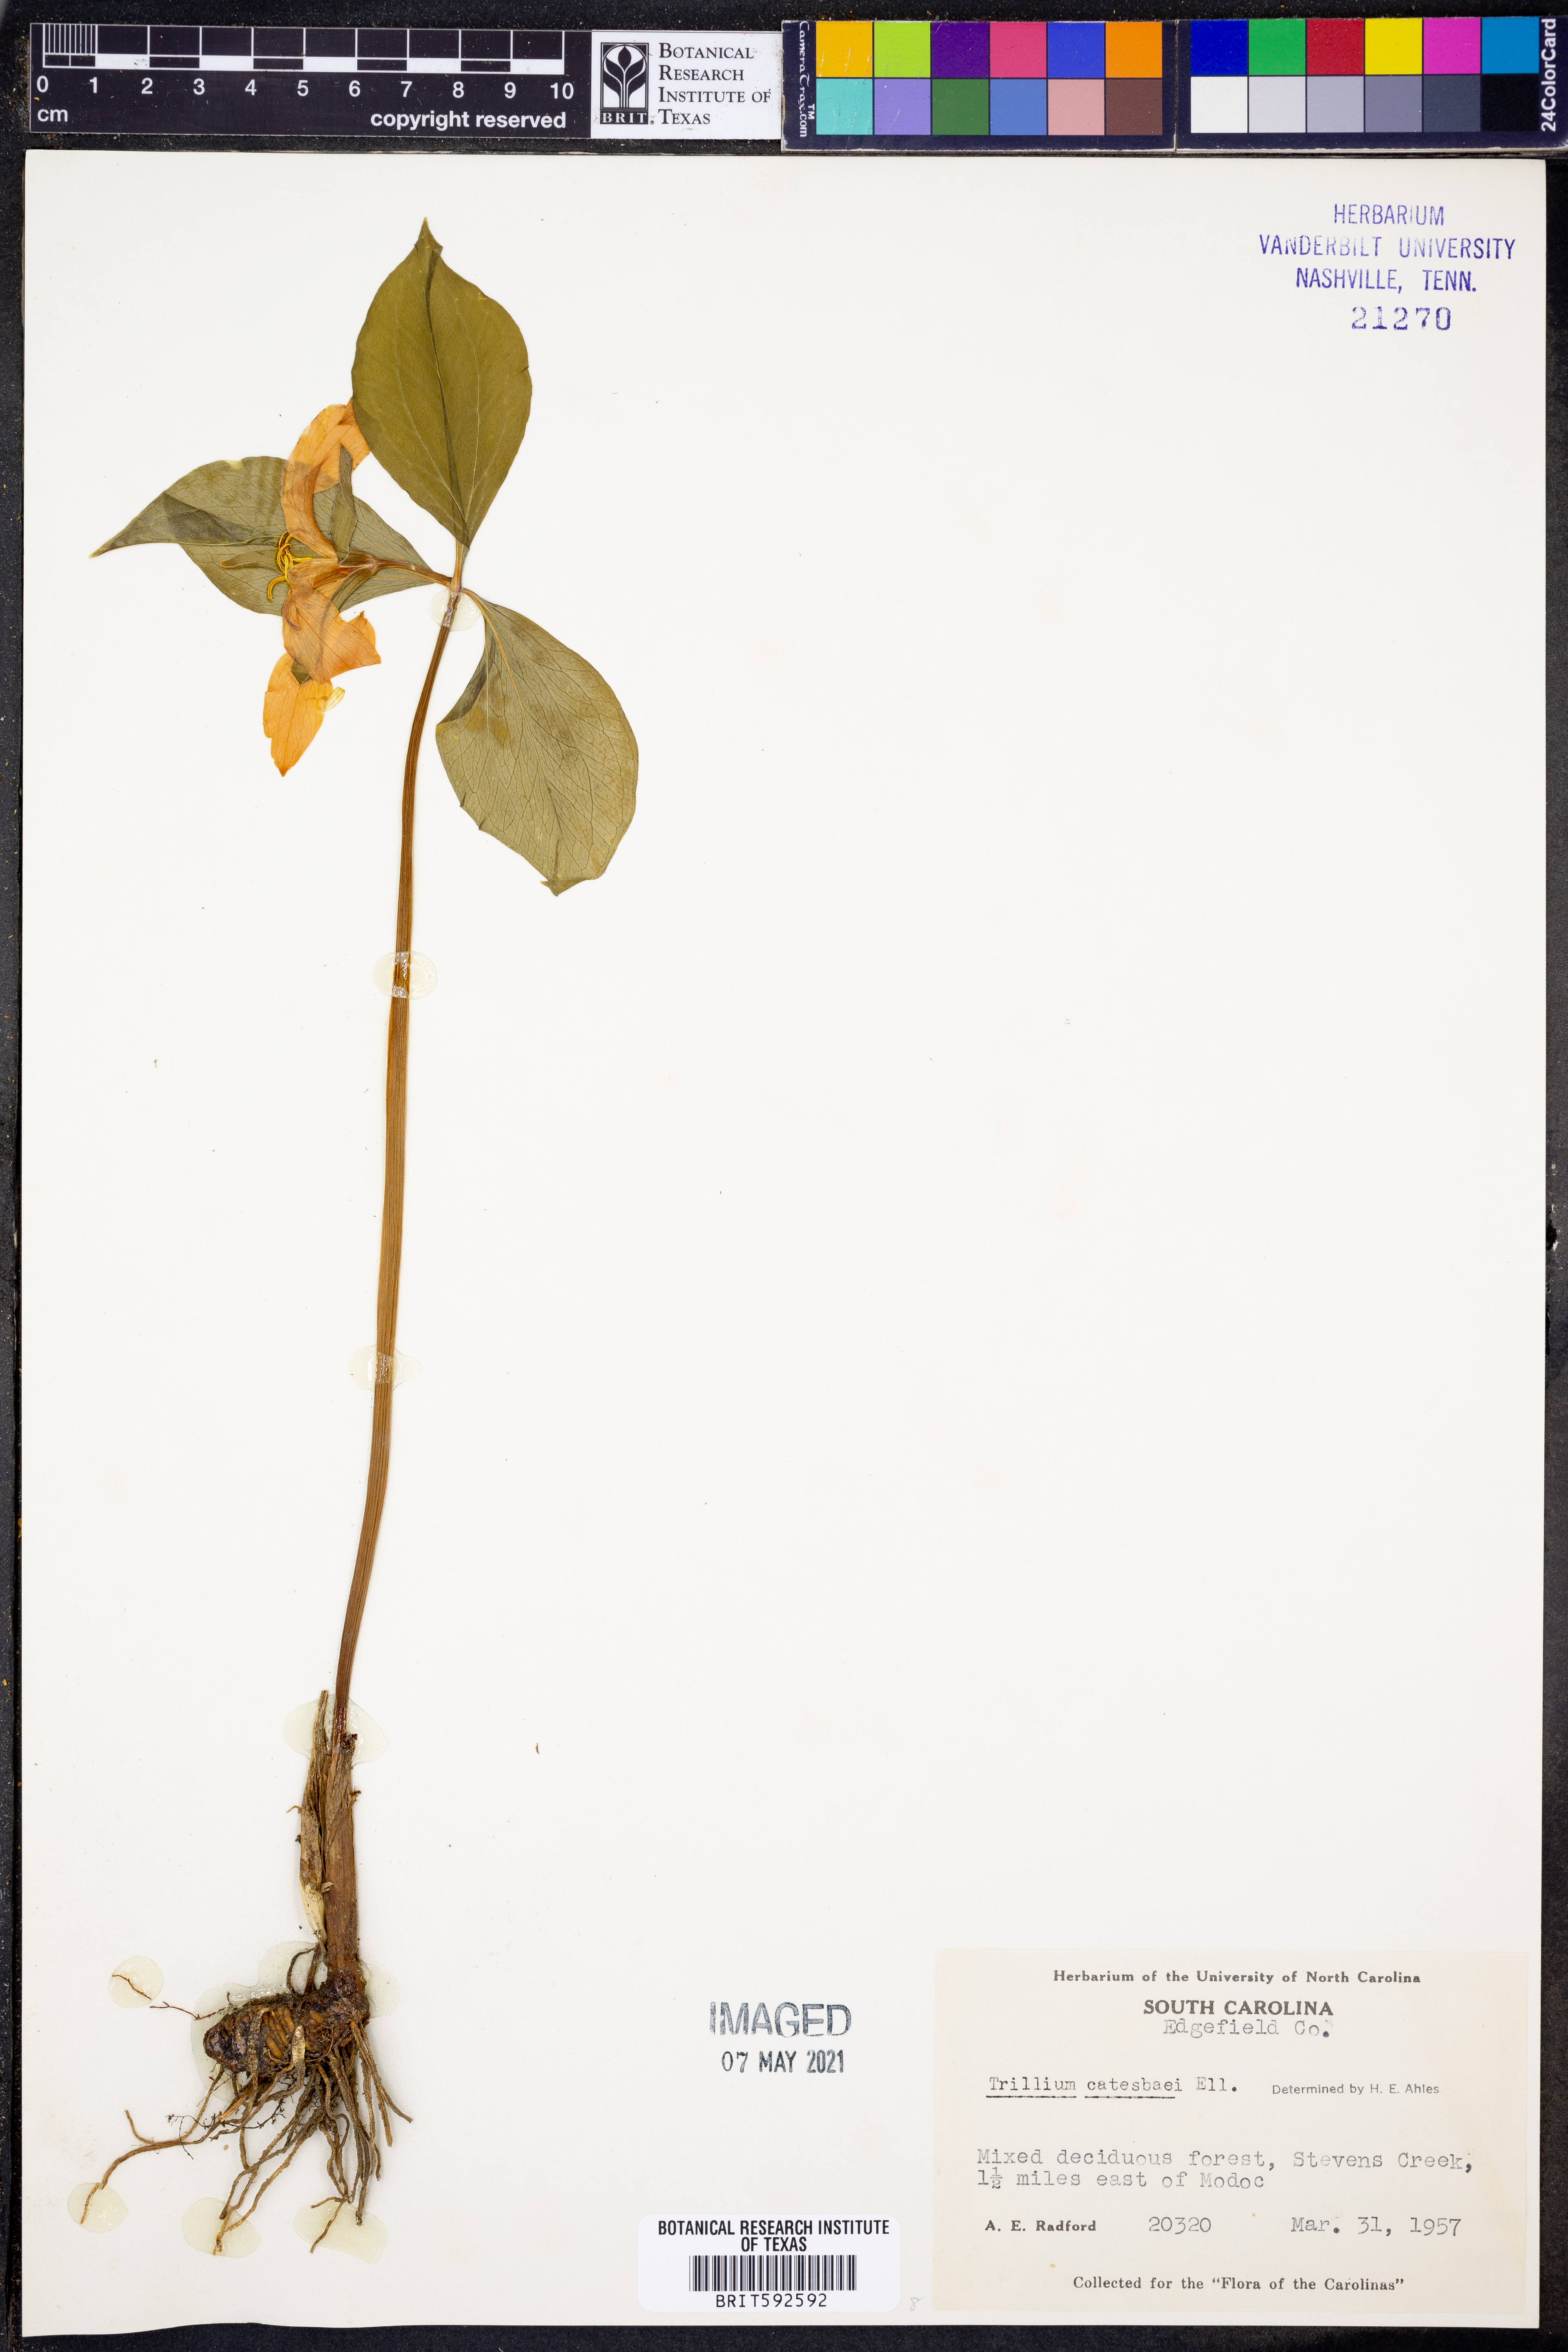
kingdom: Plantae
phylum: Tracheophyta
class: Liliopsida
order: Liliales
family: Melanthiaceae
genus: Trillium
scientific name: Trillium catesbaei
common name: Bashful trillium
